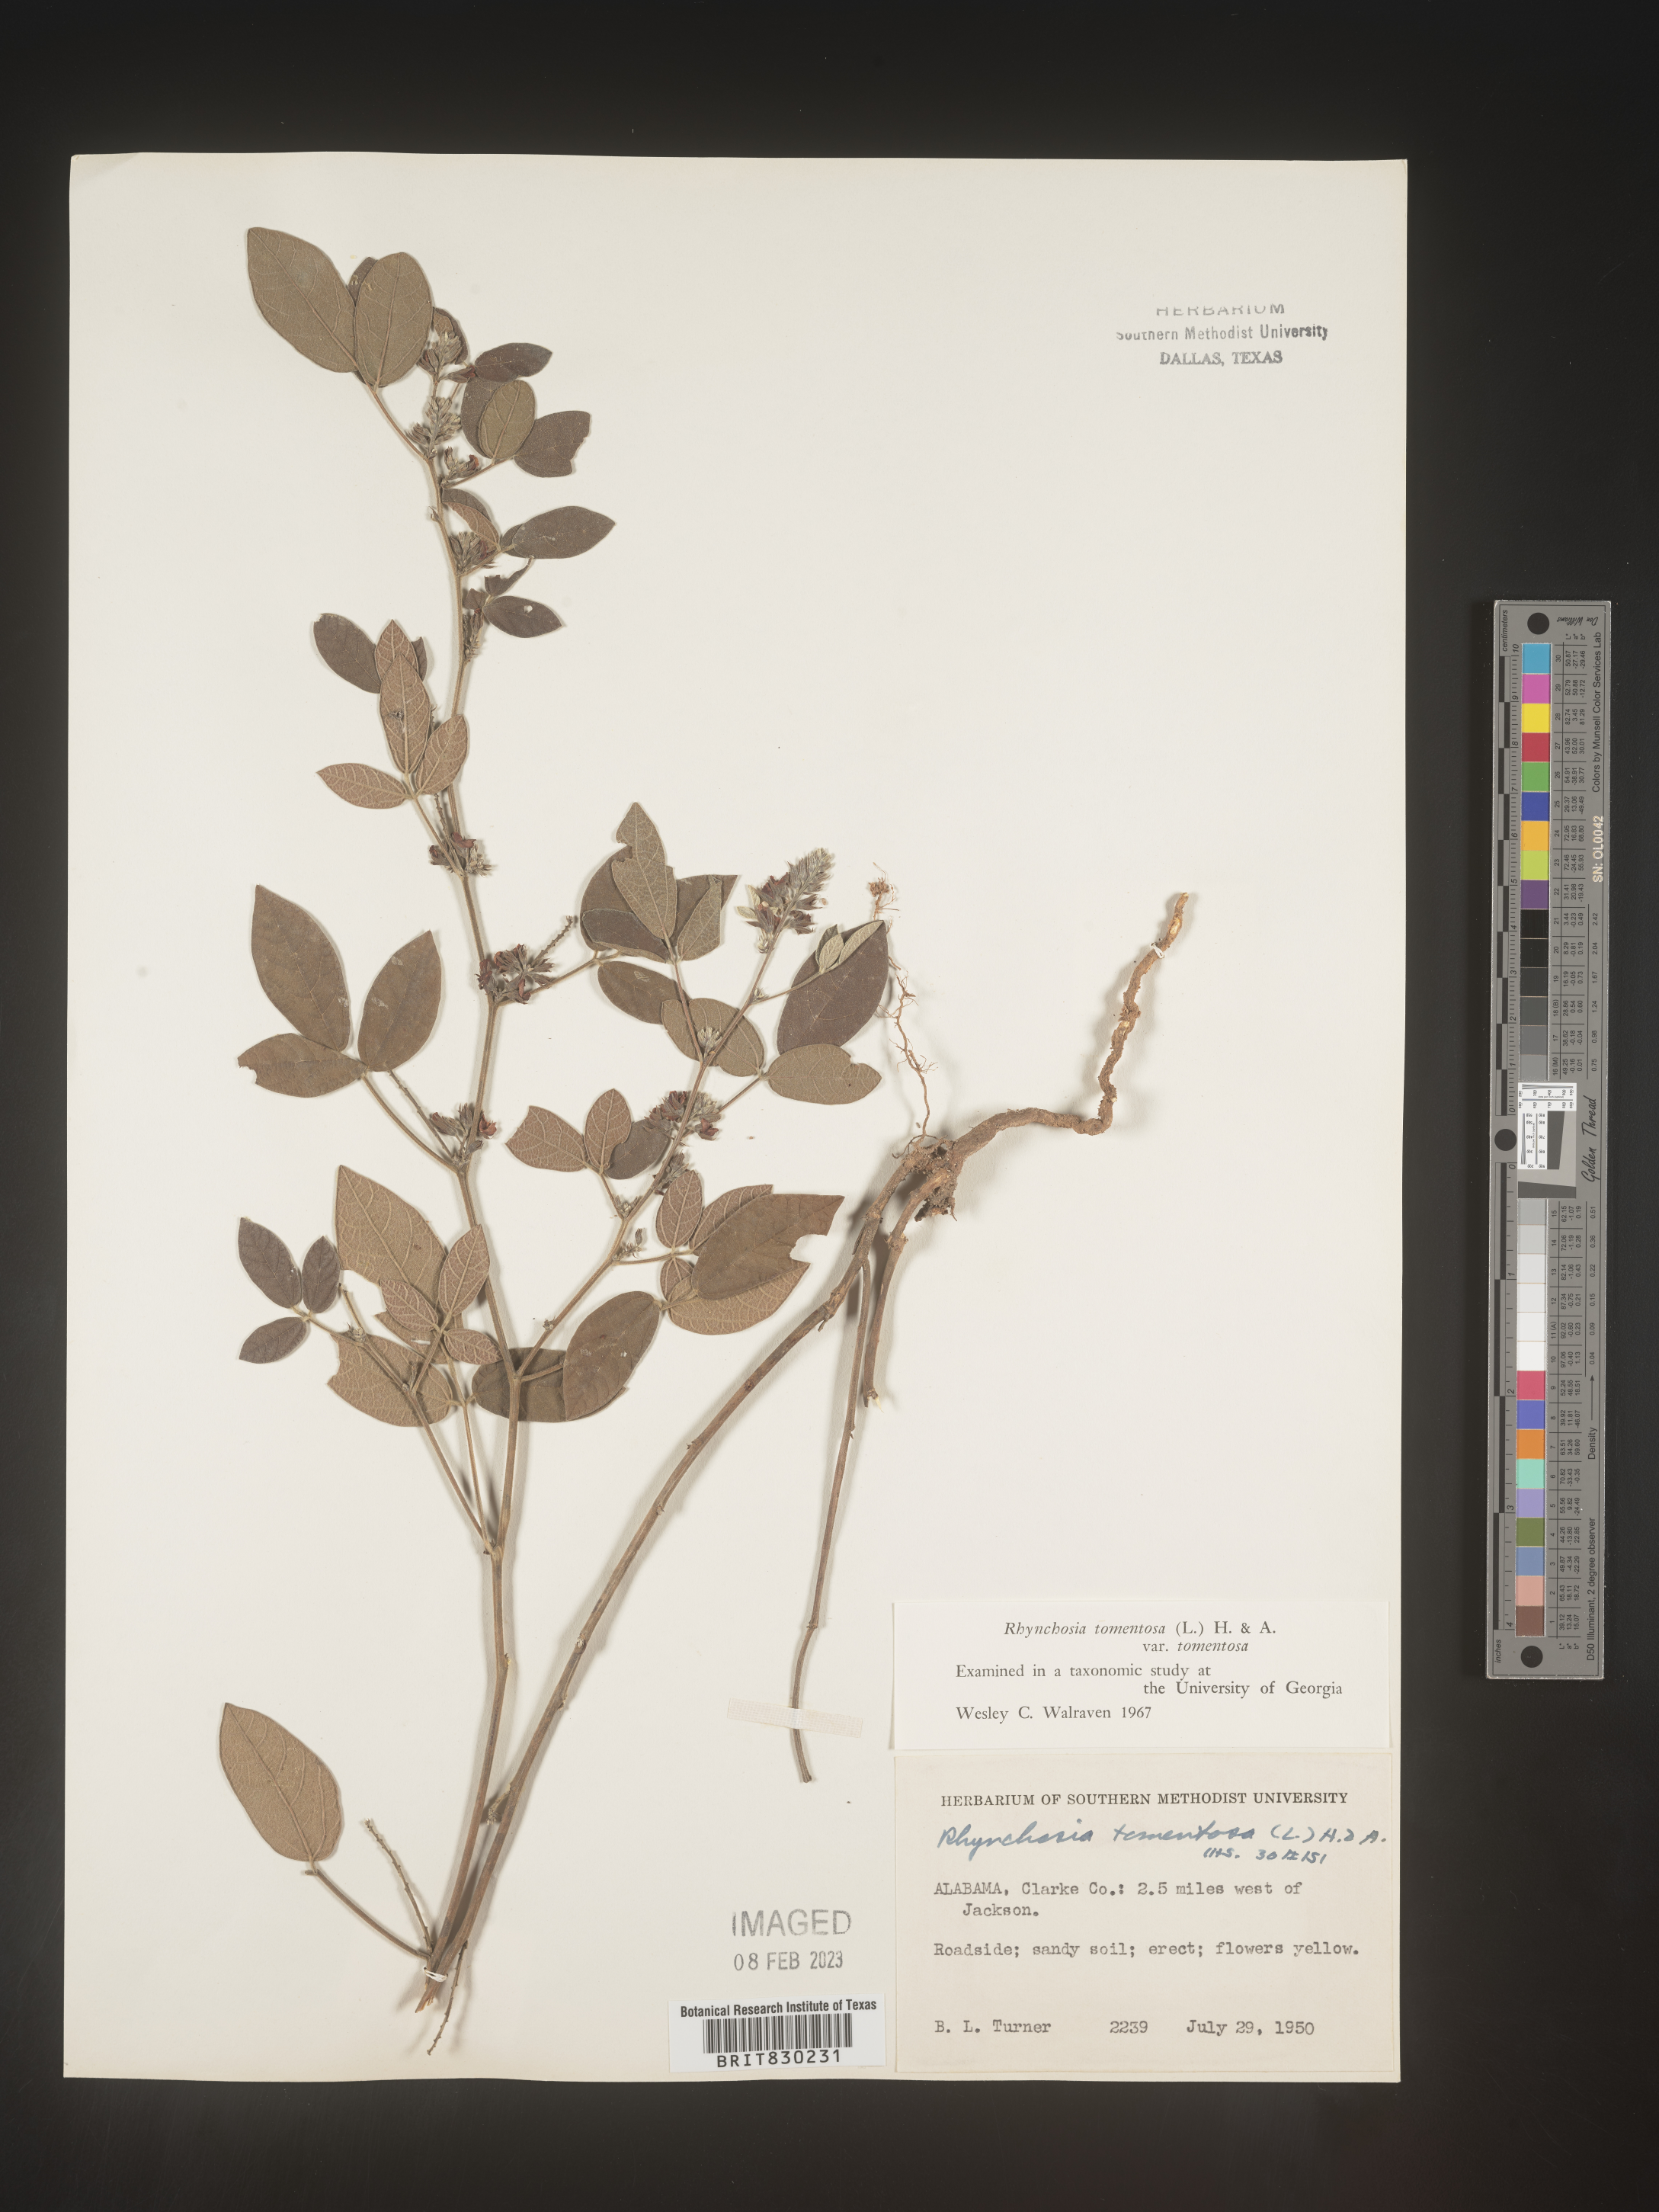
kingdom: Plantae
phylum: Tracheophyta
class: Magnoliopsida
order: Fabales
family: Fabaceae
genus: Rhynchosia
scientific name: Rhynchosia rothii
